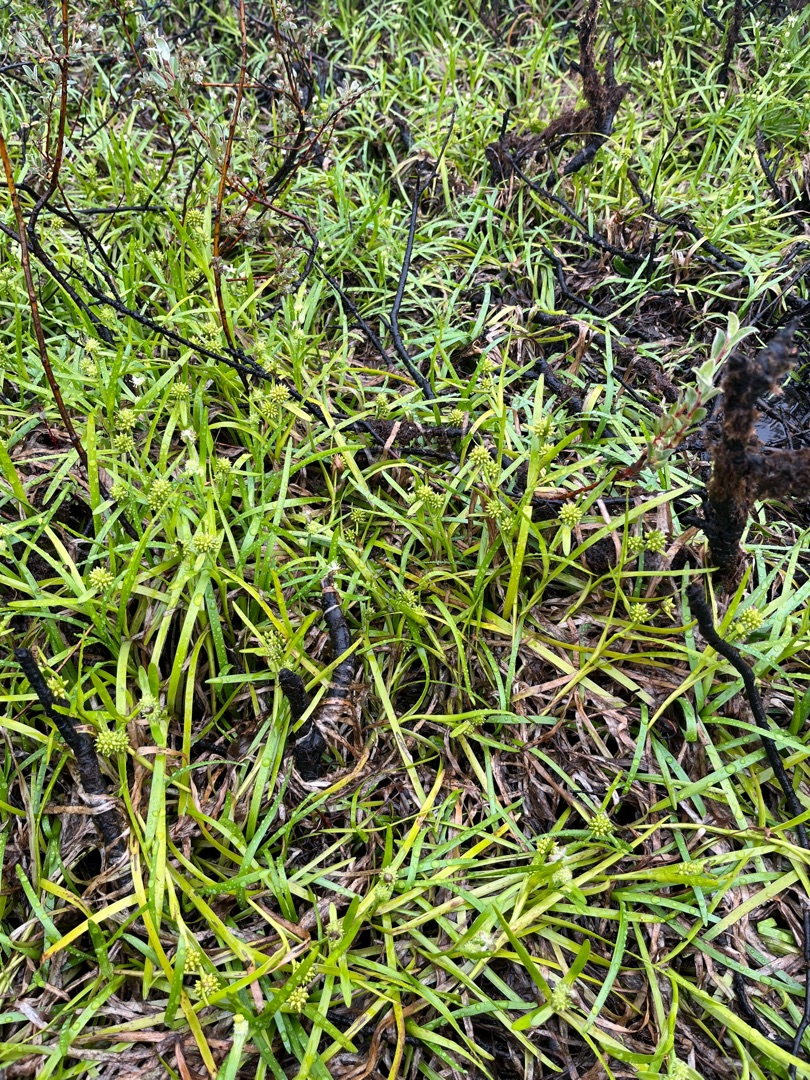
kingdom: Plantae
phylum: Tracheophyta
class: Liliopsida
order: Poales
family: Typhaceae
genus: Sparganium
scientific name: Sparganium natans
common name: Spæd pindsvineknop
